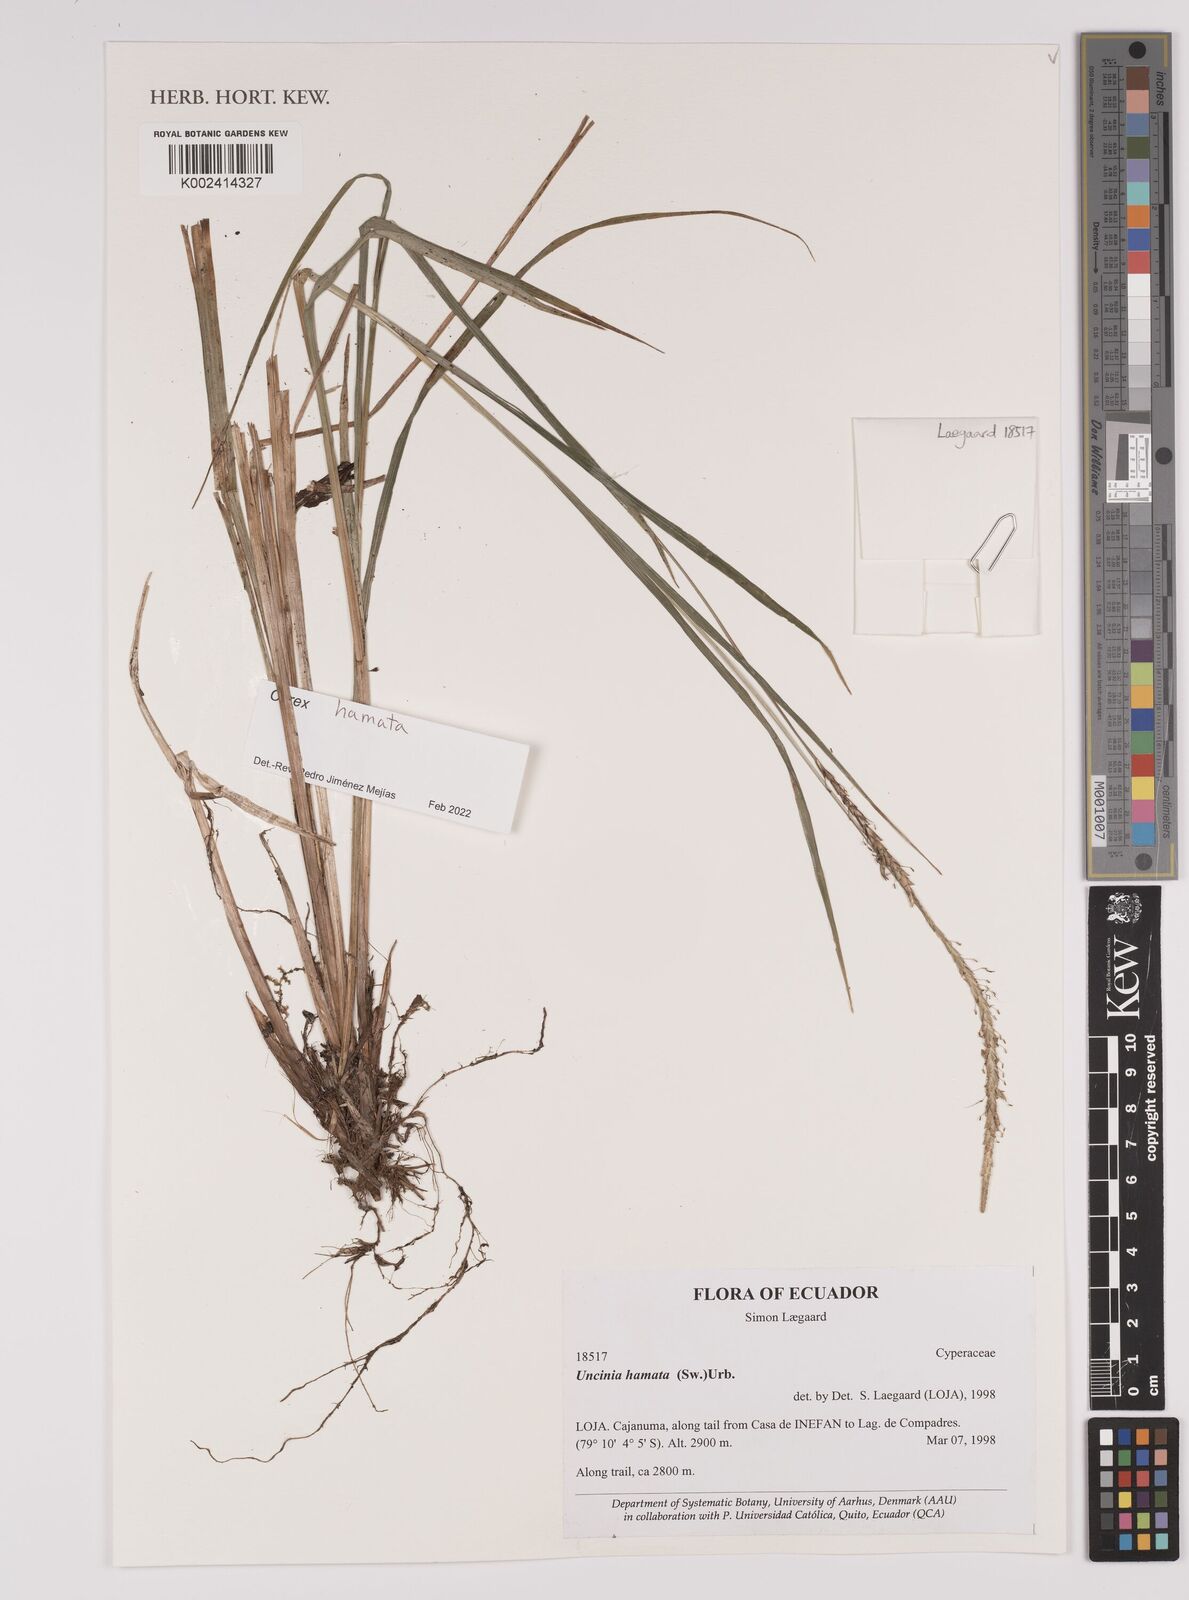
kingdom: Plantae
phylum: Tracheophyta
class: Liliopsida
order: Poales
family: Cyperaceae
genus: Carex
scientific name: Carex hamata
